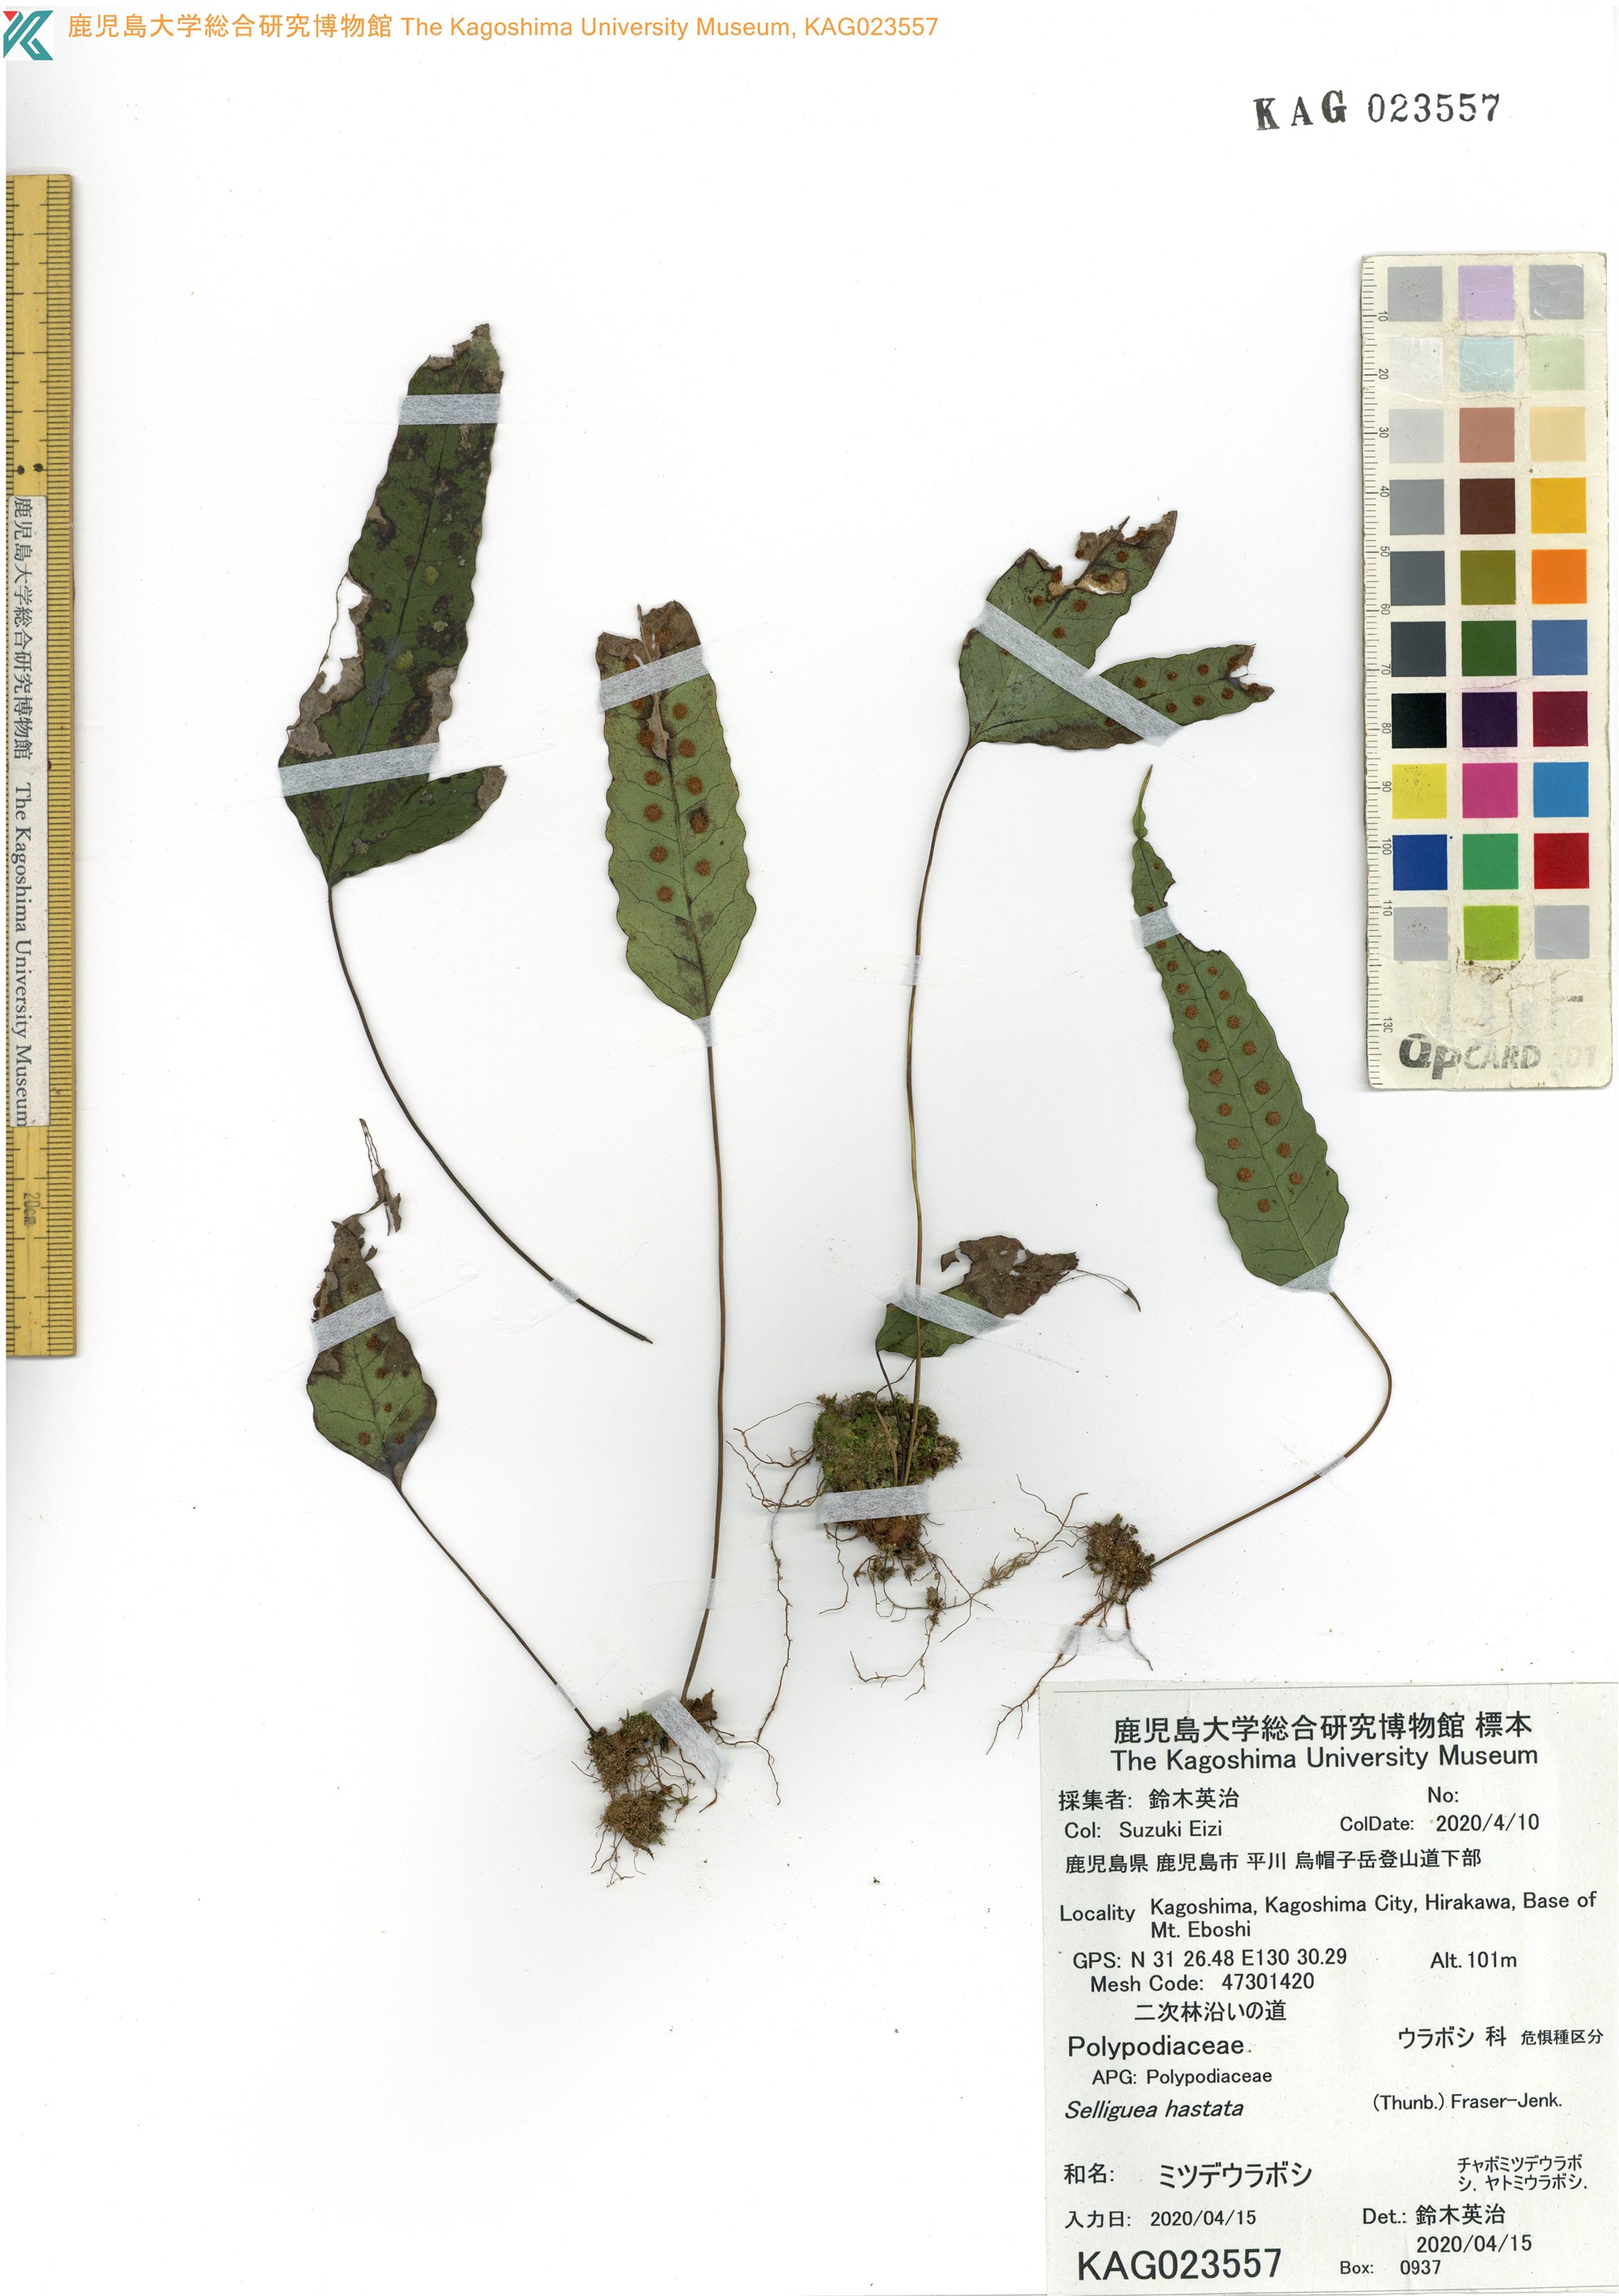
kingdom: Plantae
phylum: Tracheophyta
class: Polypodiopsida
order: Polypodiales
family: Polypodiaceae
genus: Selliguea
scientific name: Selliguea hastata
